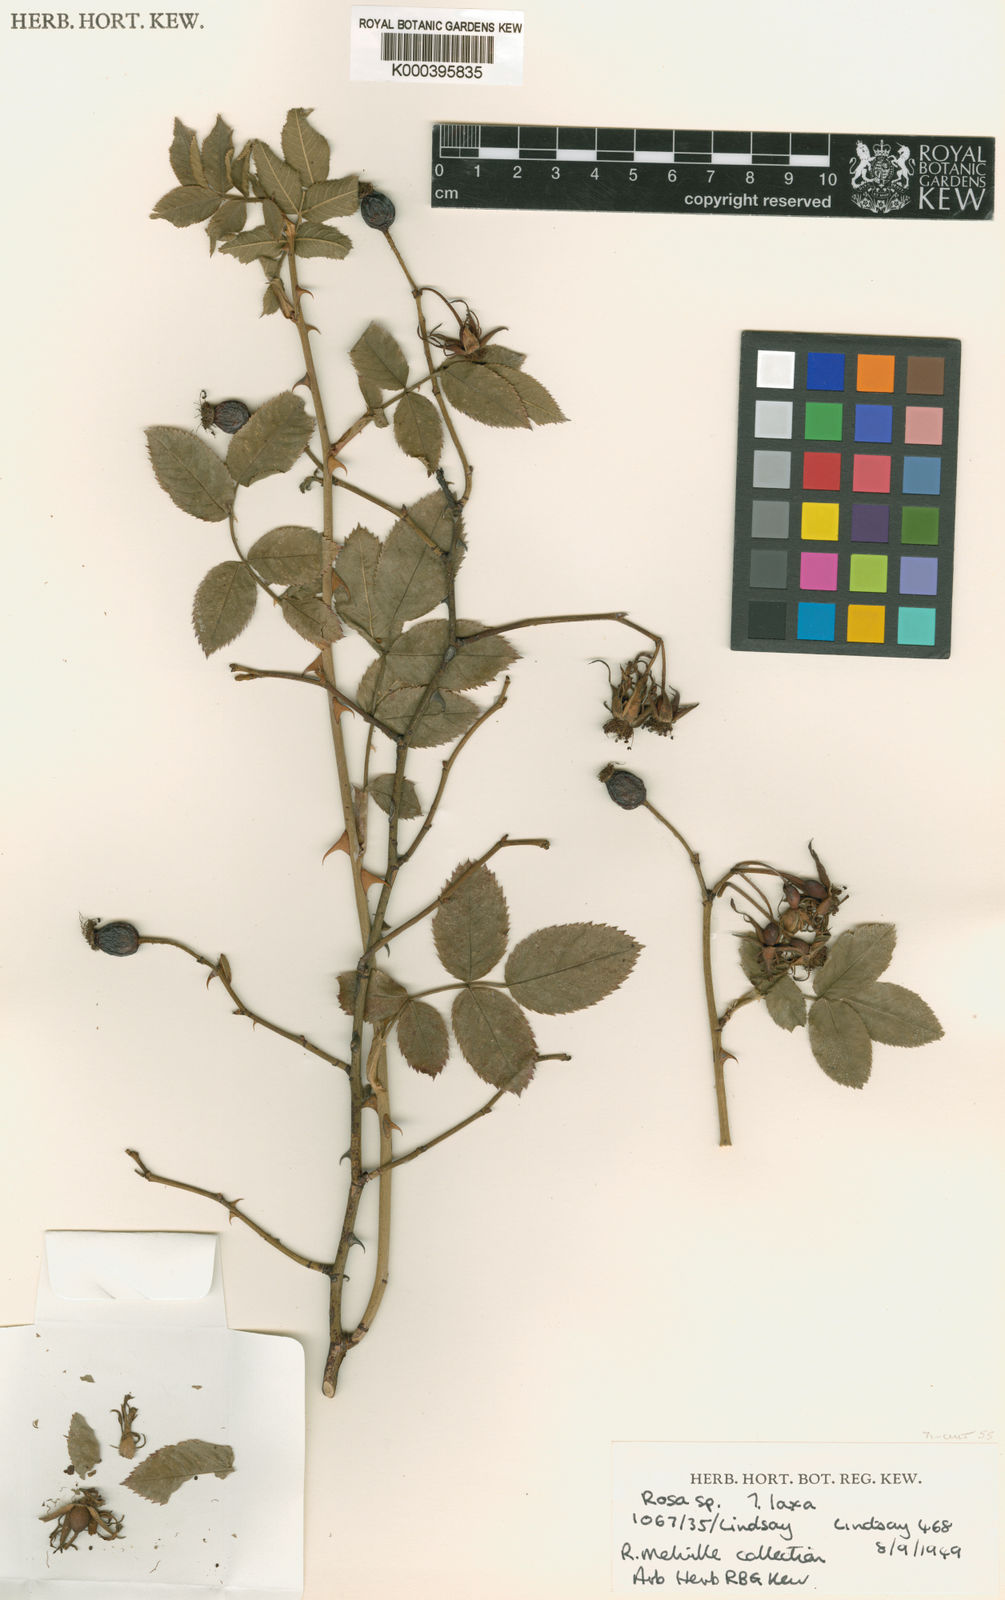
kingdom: Plantae
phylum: Tracheophyta
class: Magnoliopsida
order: Rosales
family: Rosaceae
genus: Rosa
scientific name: Rosa laxa
